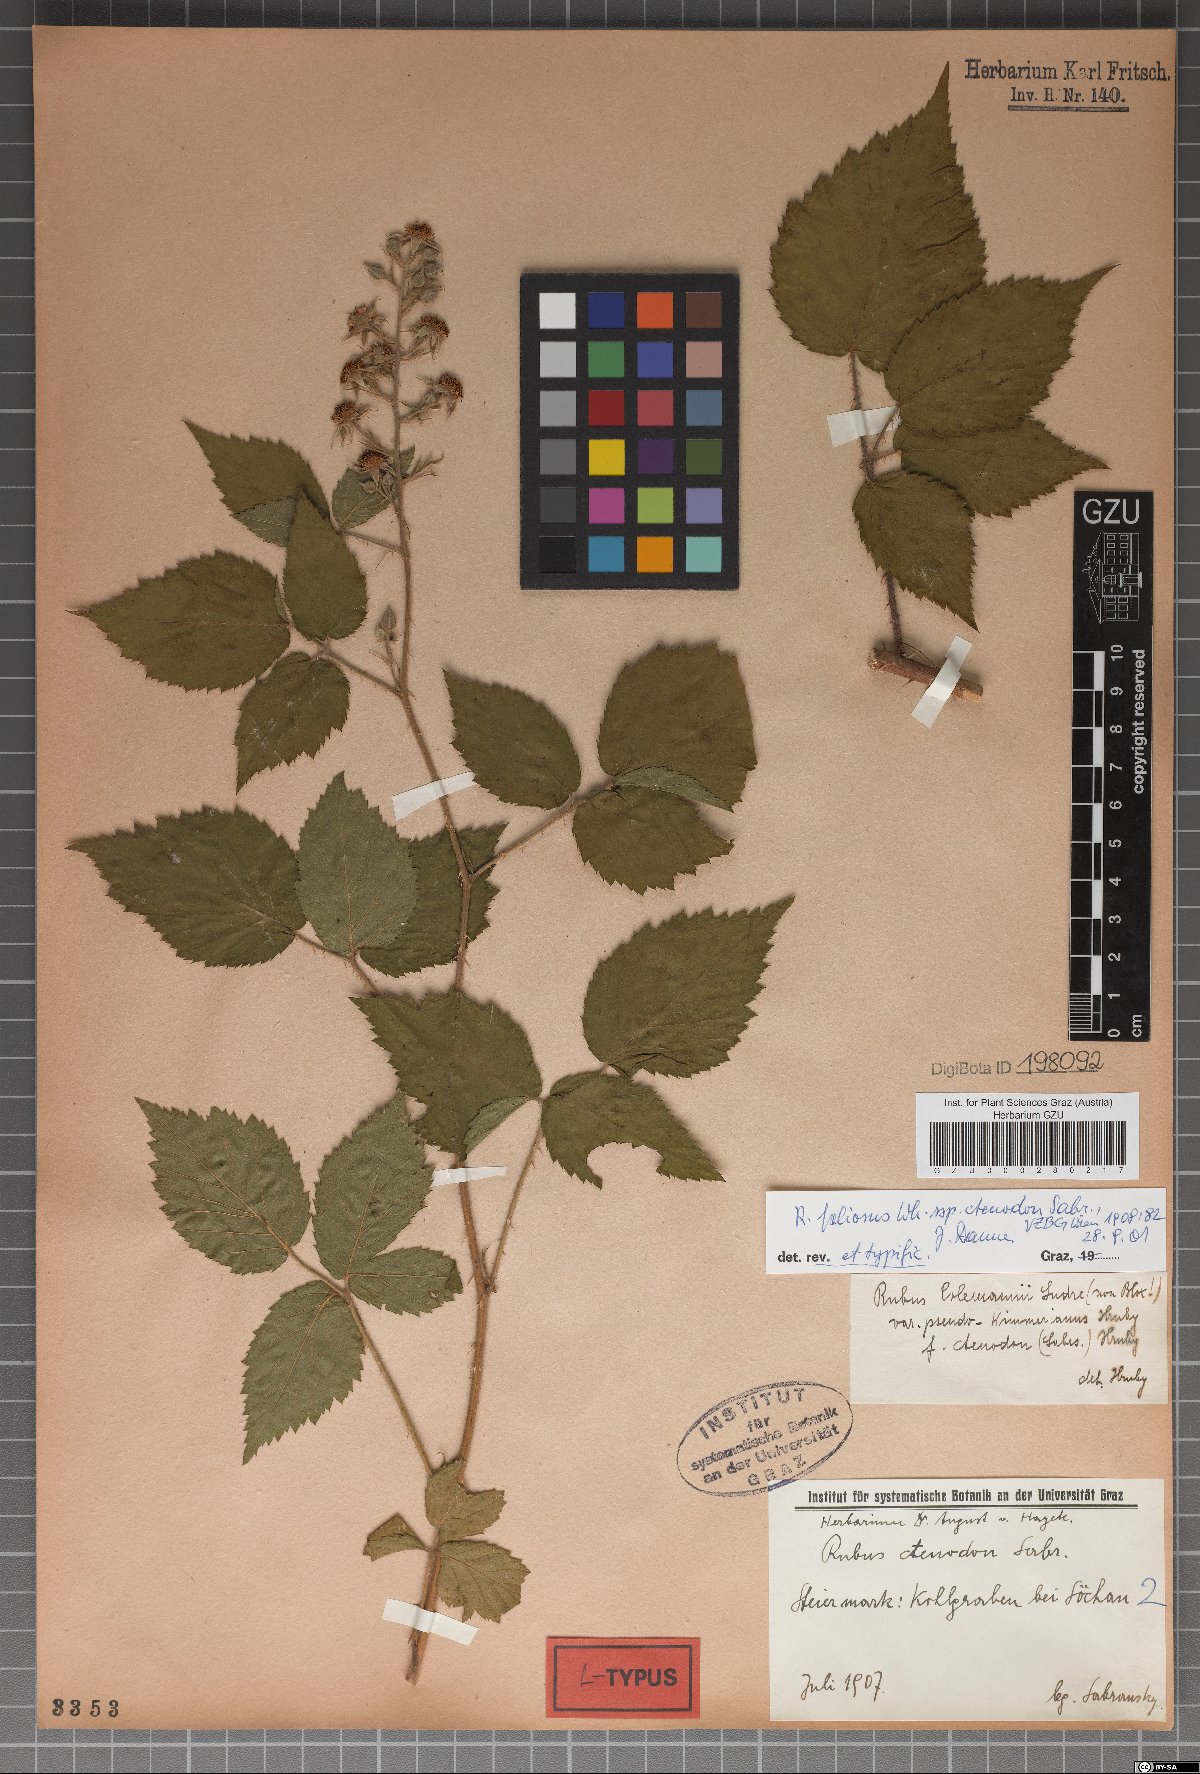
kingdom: Plantae
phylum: Tracheophyta
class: Magnoliopsida
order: Rosales
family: Rosaceae
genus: Rubus
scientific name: Rubus foliosus
